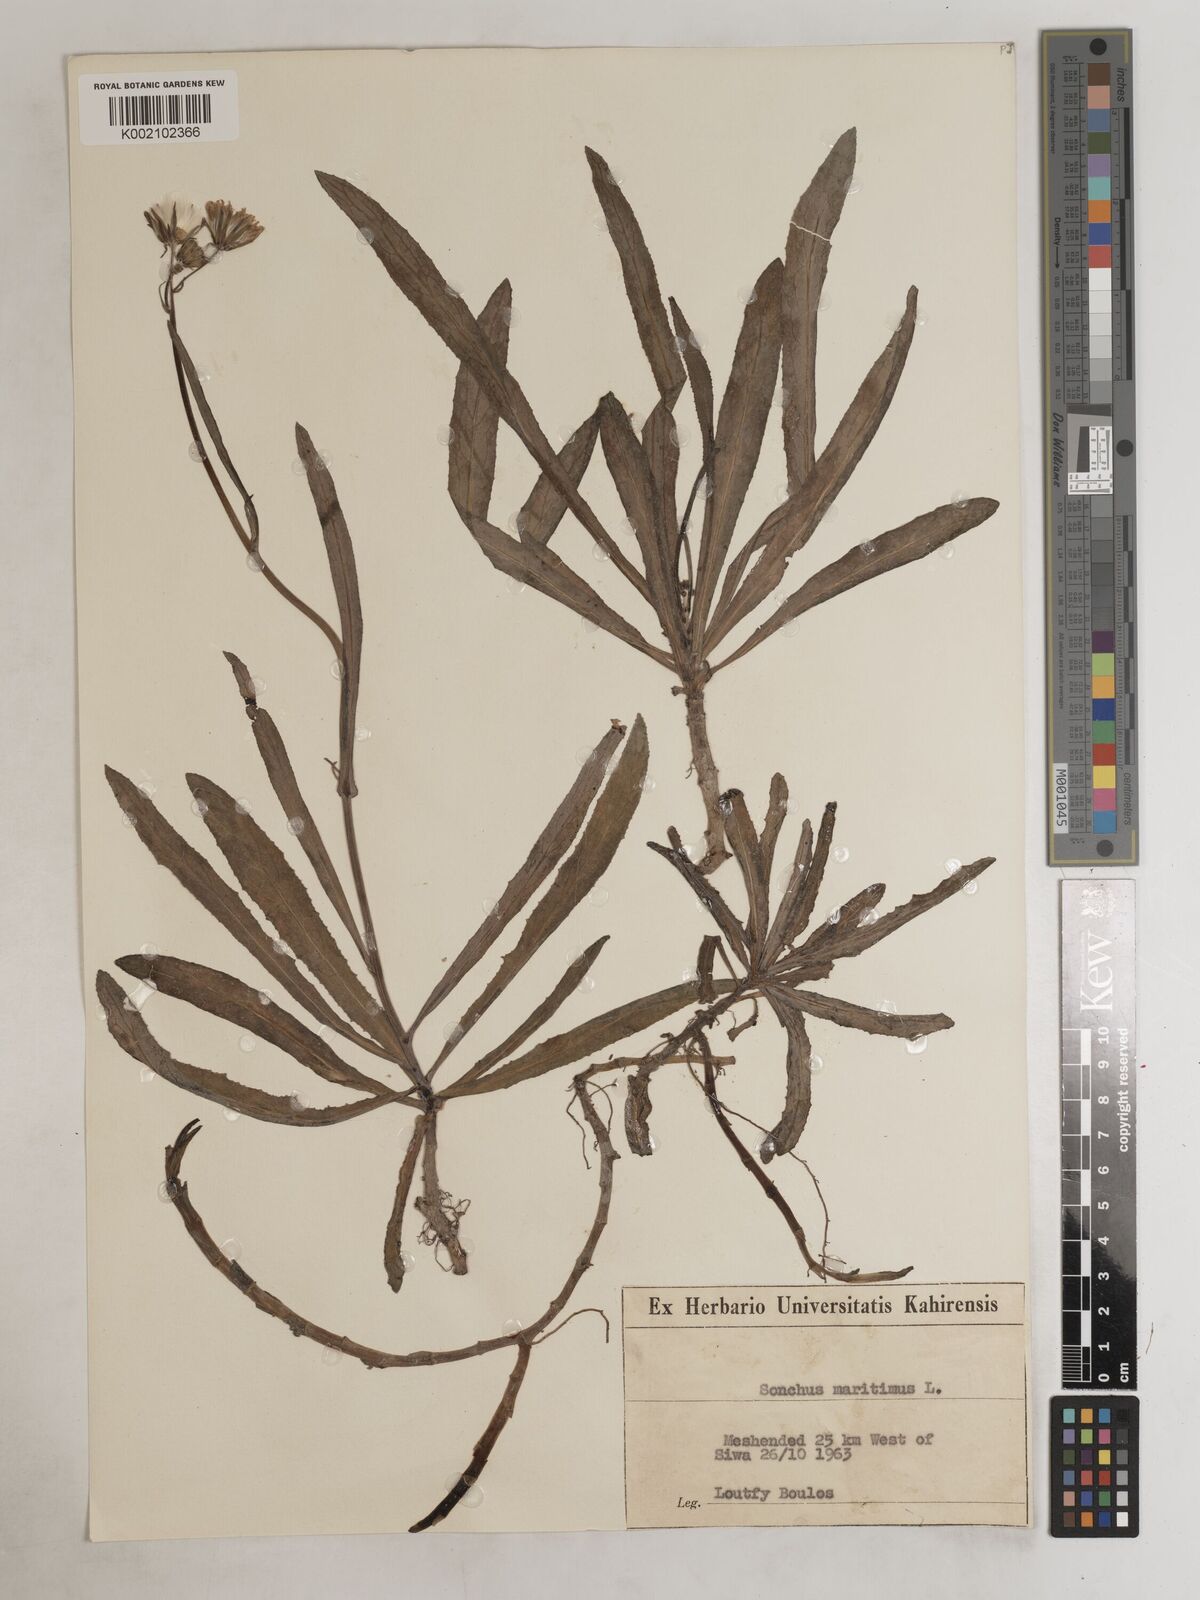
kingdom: Plantae
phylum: Tracheophyta
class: Magnoliopsida
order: Asterales
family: Asteraceae
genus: Sonchus
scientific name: Sonchus maritimus
